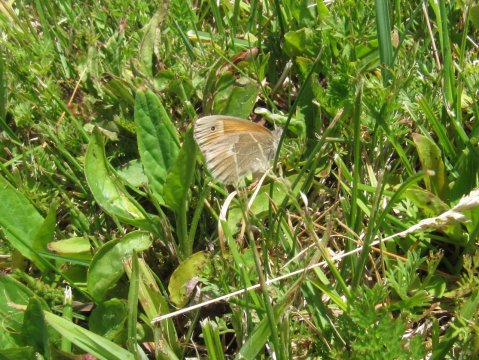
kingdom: Animalia
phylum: Arthropoda
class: Insecta
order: Lepidoptera
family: Nymphalidae
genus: Coenonympha
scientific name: Coenonympha tullia
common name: Large Heath
